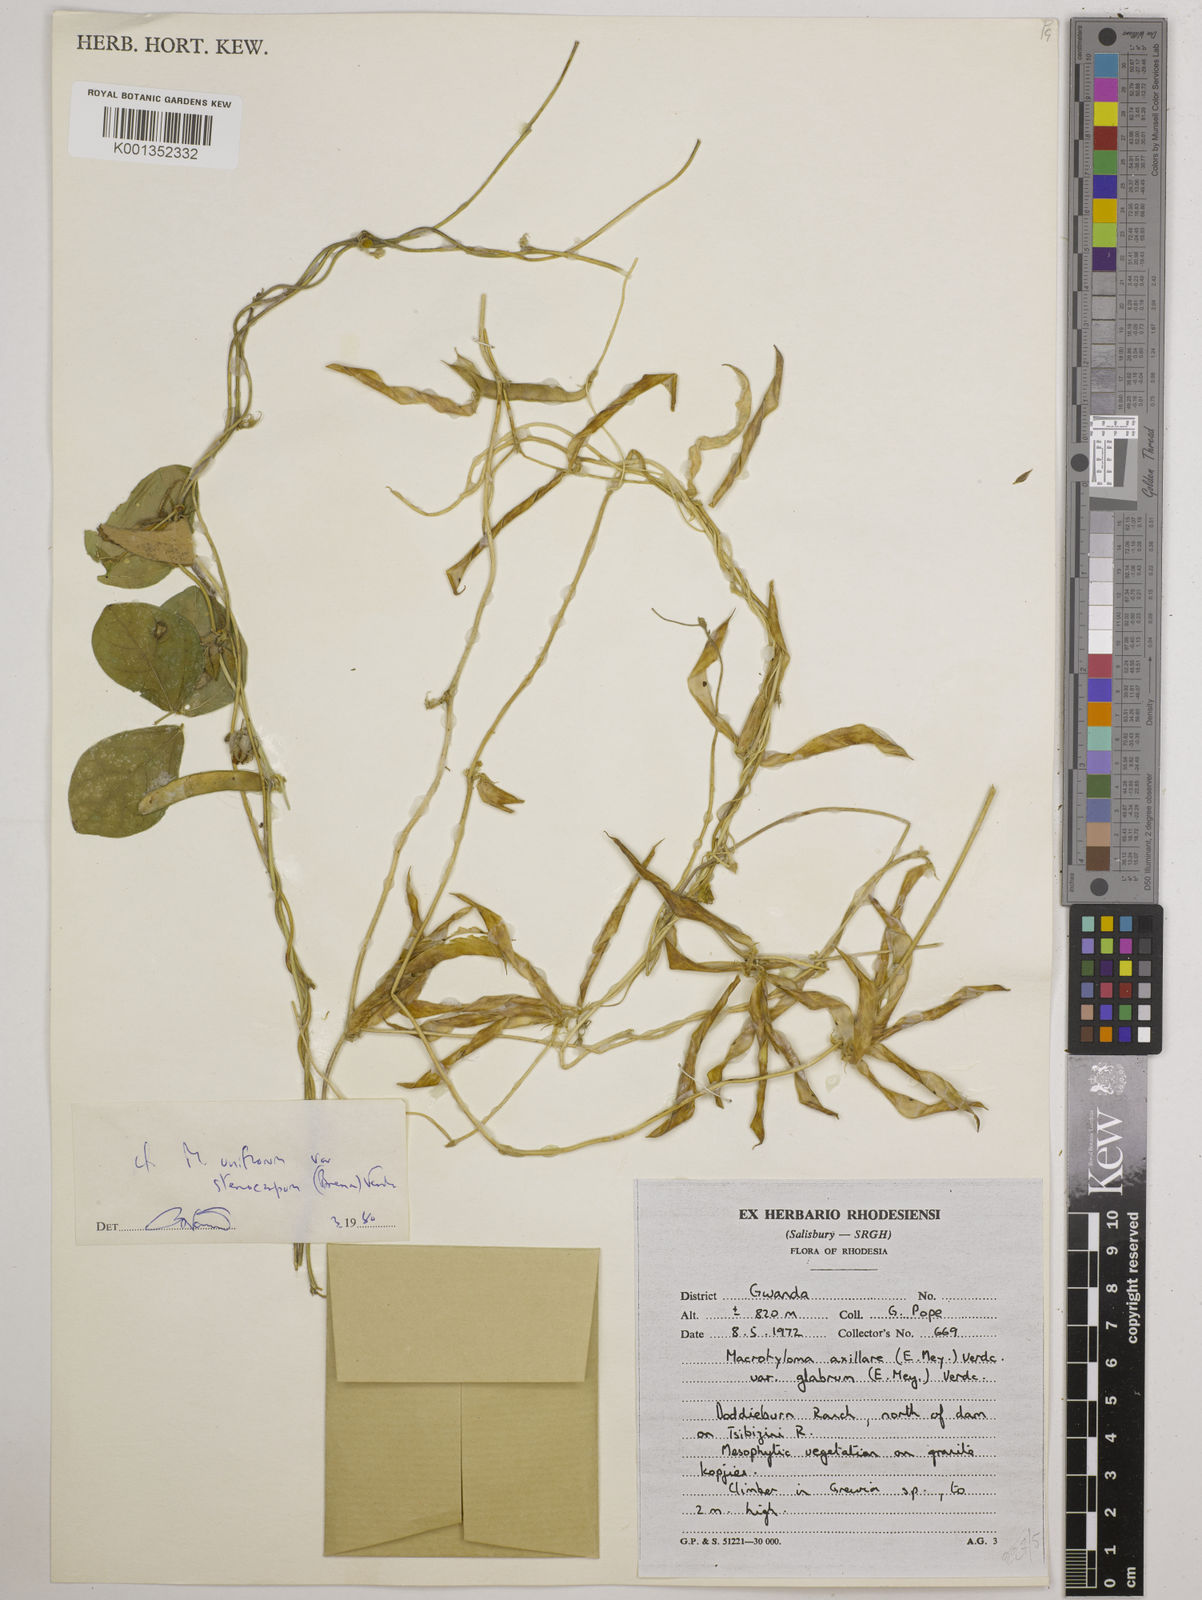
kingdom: Plantae
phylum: Tracheophyta
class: Magnoliopsida
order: Fabales
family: Fabaceae
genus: Macrotyloma
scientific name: Macrotyloma
